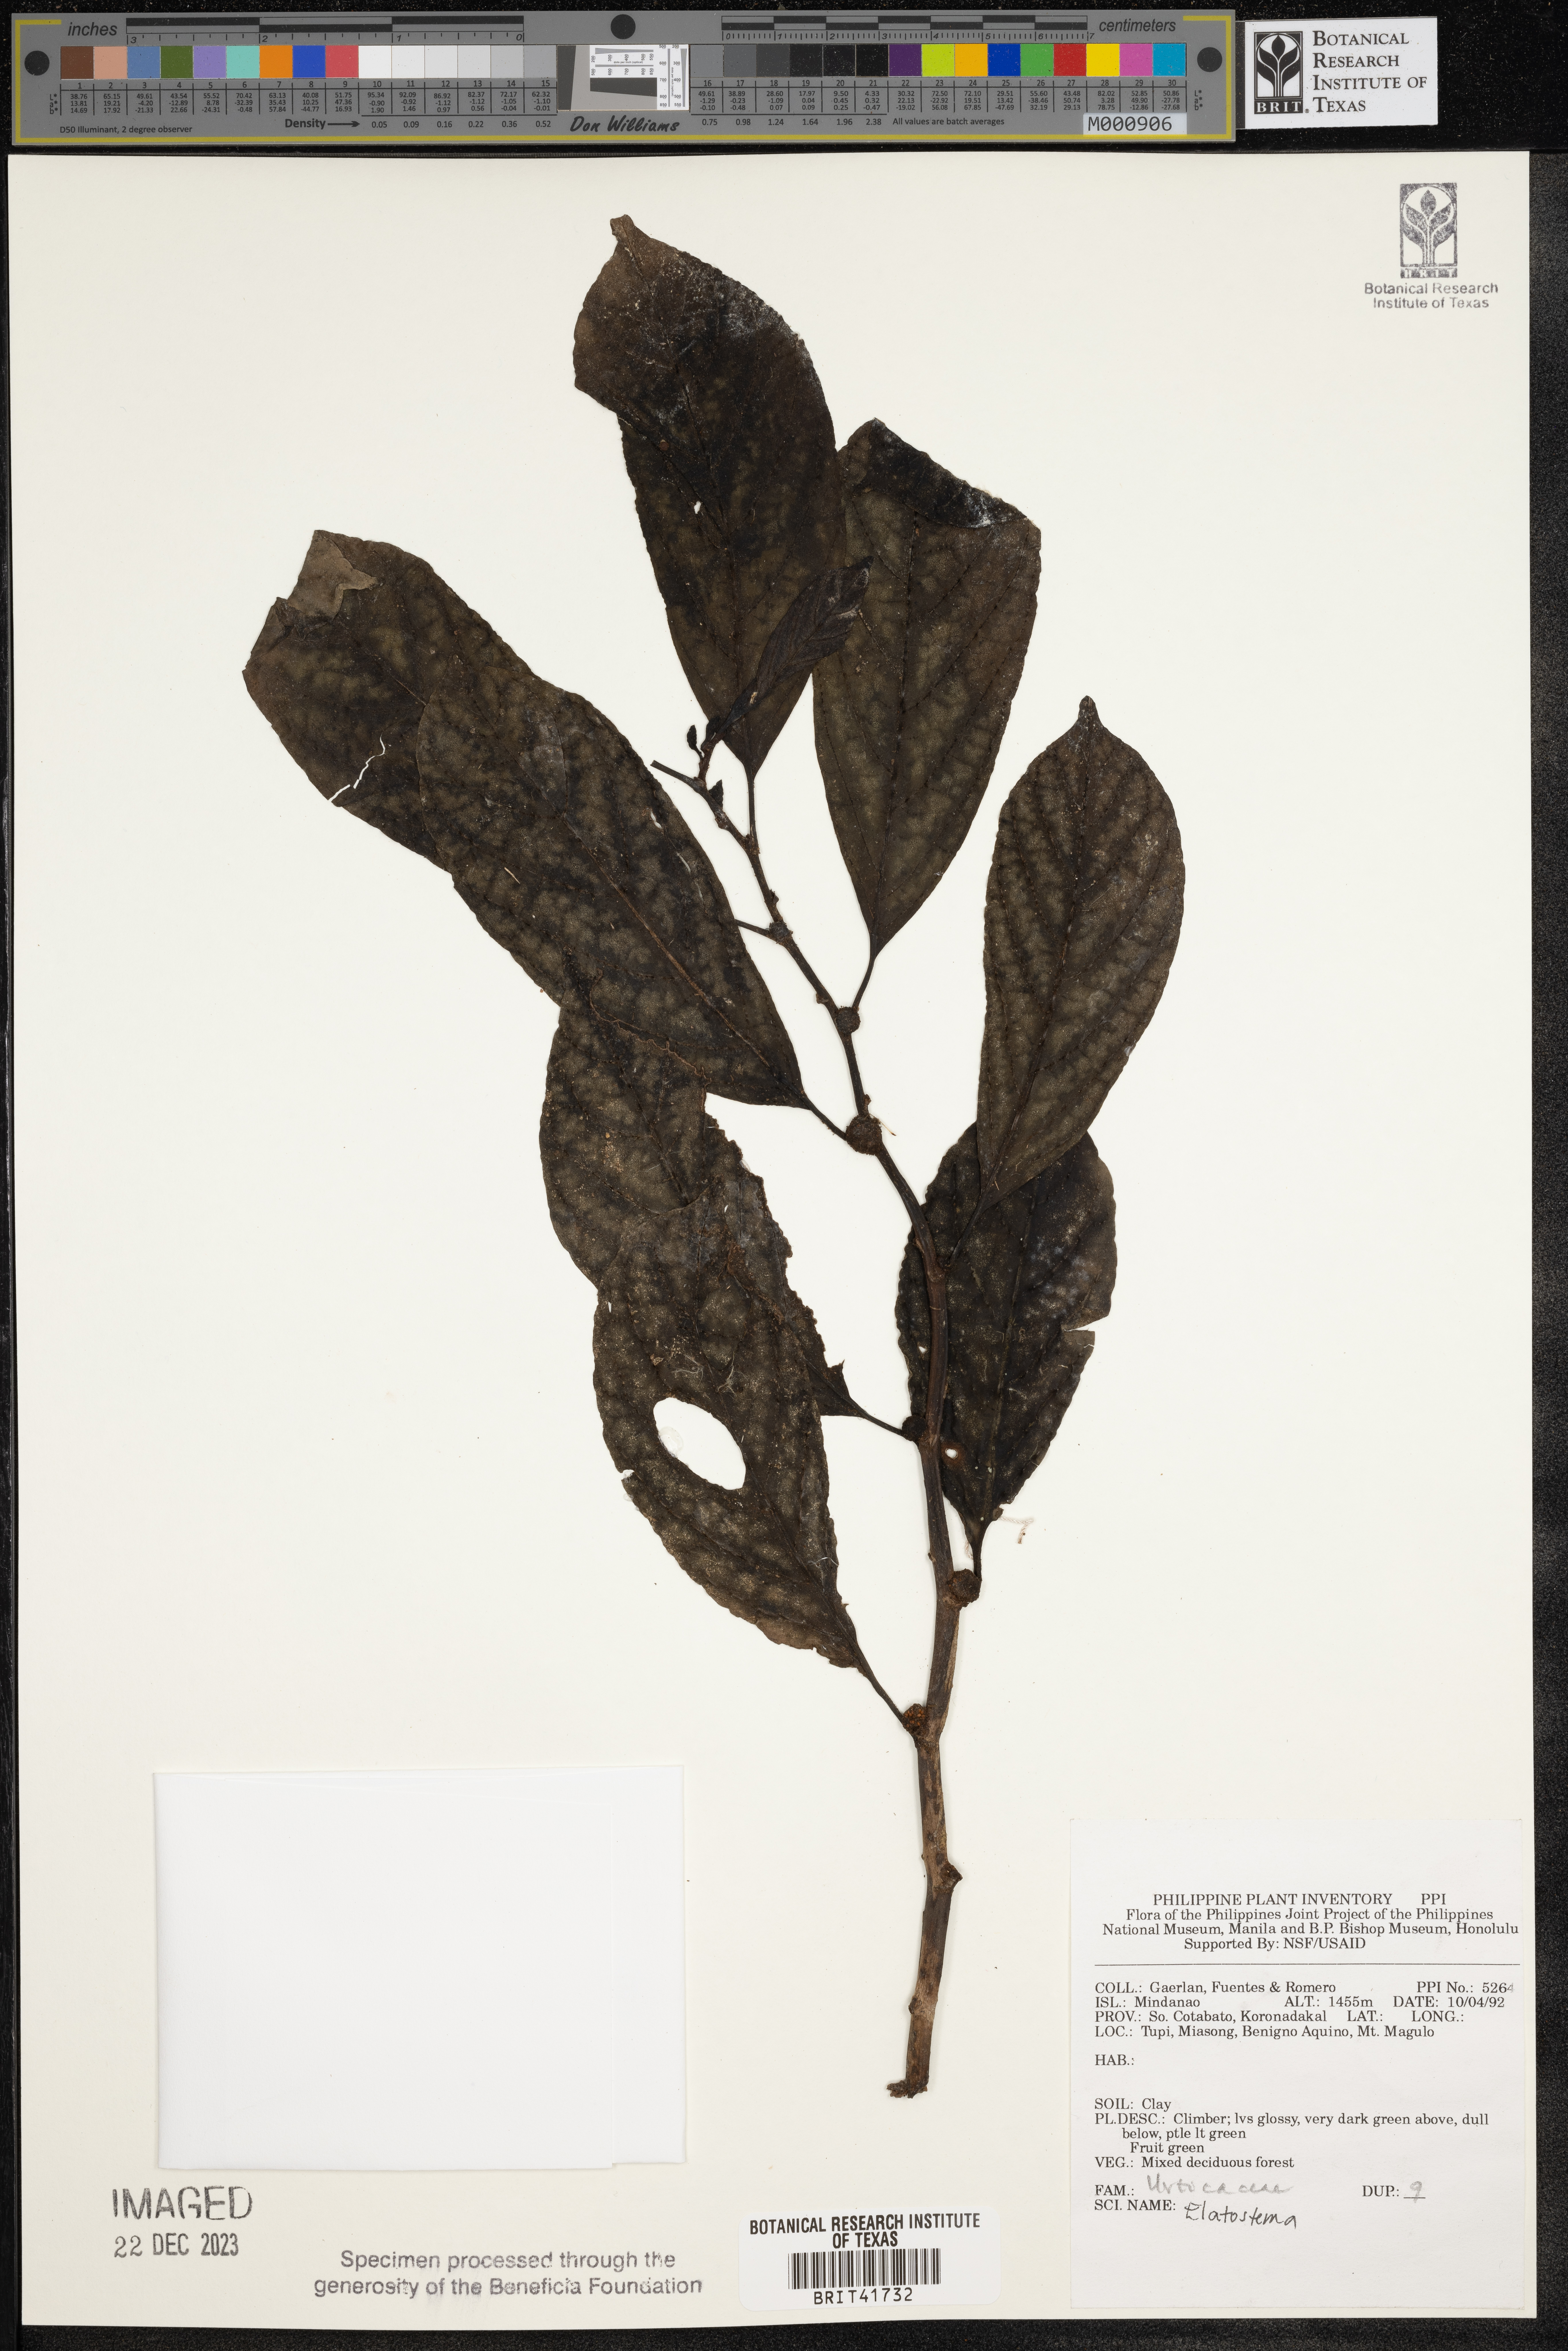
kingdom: Plantae
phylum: Tracheophyta
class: Magnoliopsida
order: Rosales
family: Urticaceae
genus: Elatostema
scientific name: Elatostema
